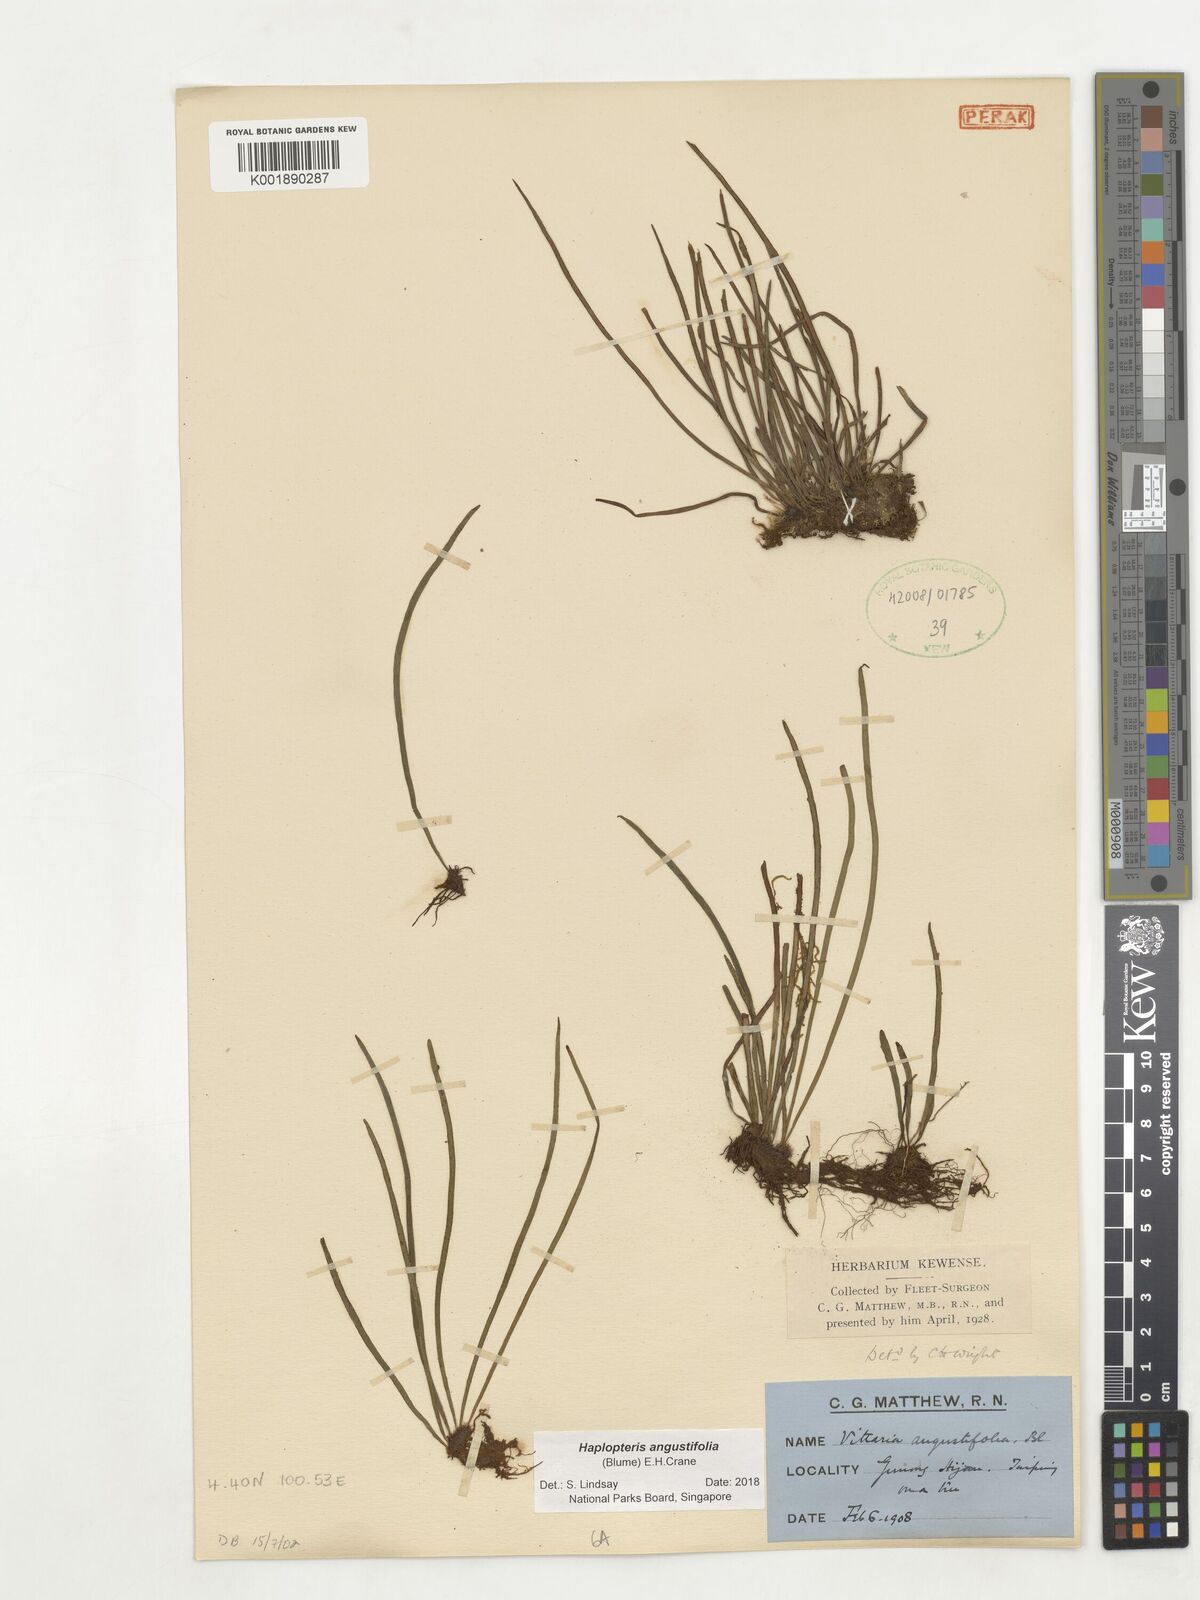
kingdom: Plantae
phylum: Tracheophyta
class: Polypodiopsida
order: Polypodiales
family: Pteridaceae
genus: Haplopteris
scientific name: Haplopteris angustifolia
